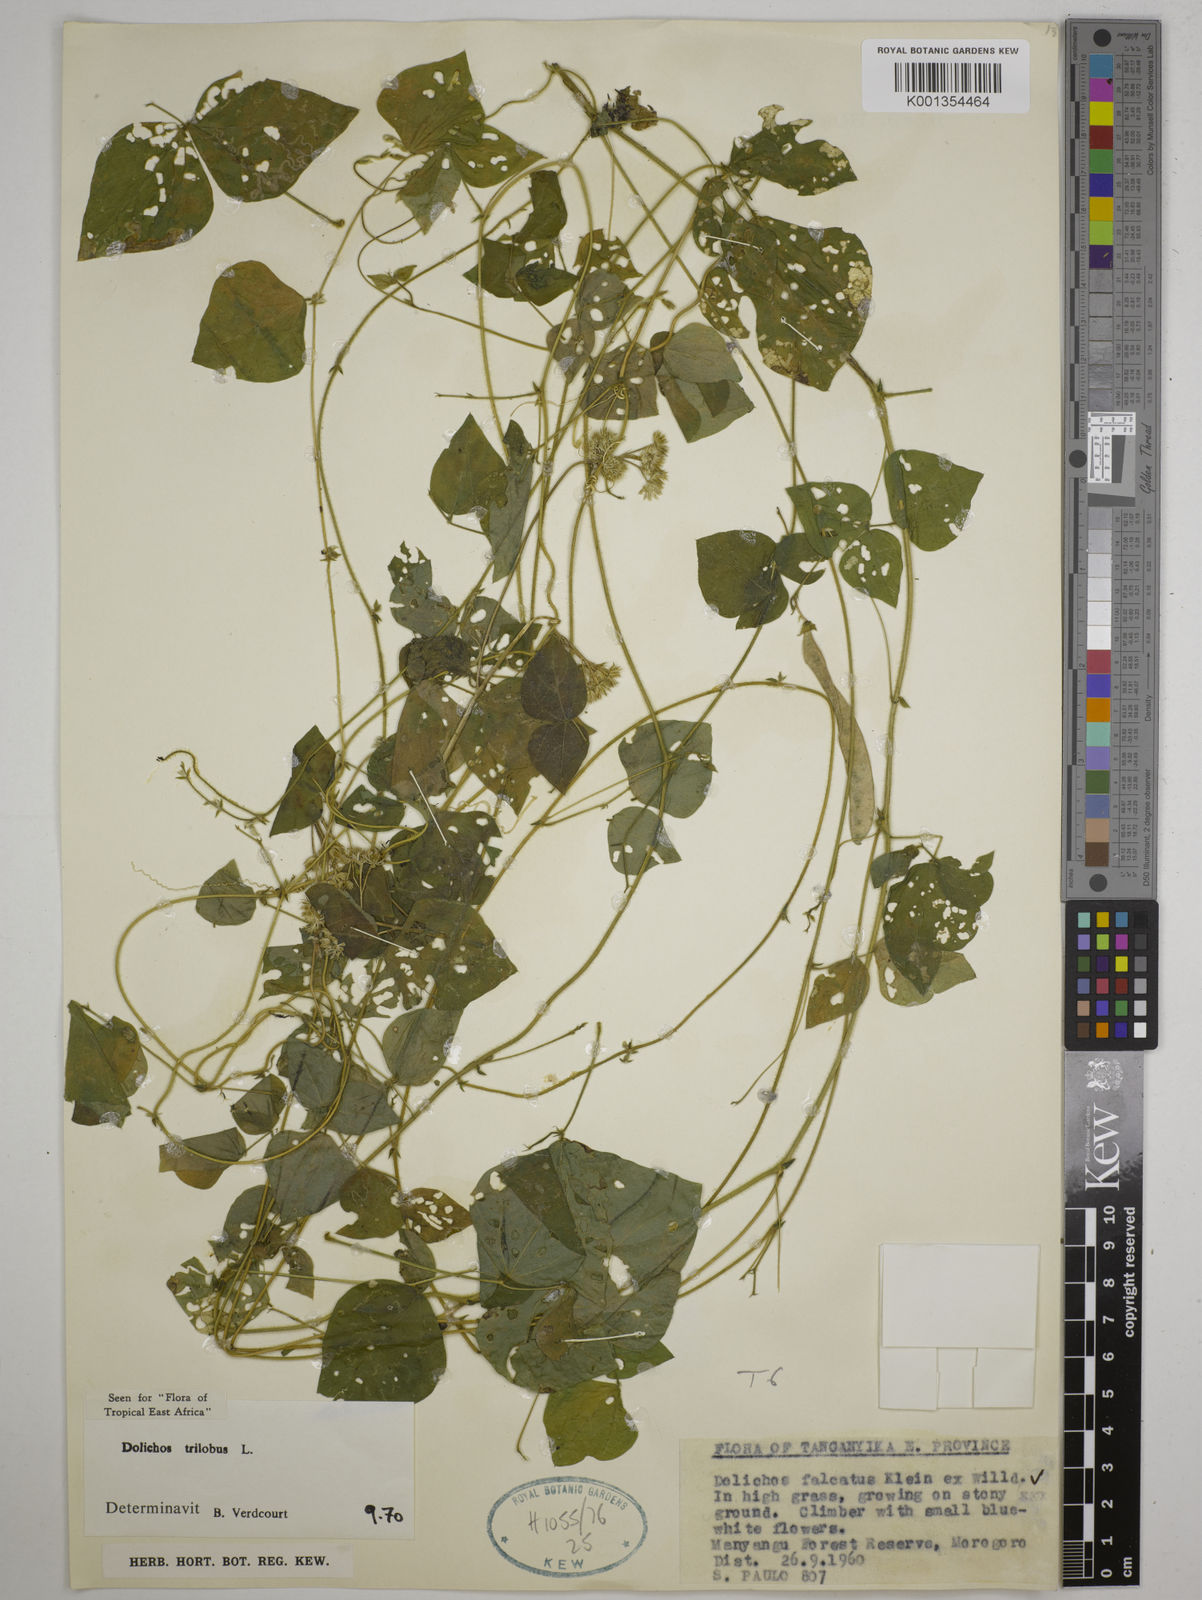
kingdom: Plantae
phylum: Tracheophyta
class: Magnoliopsida
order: Fabales
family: Fabaceae
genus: Dolichos
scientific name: Dolichos
